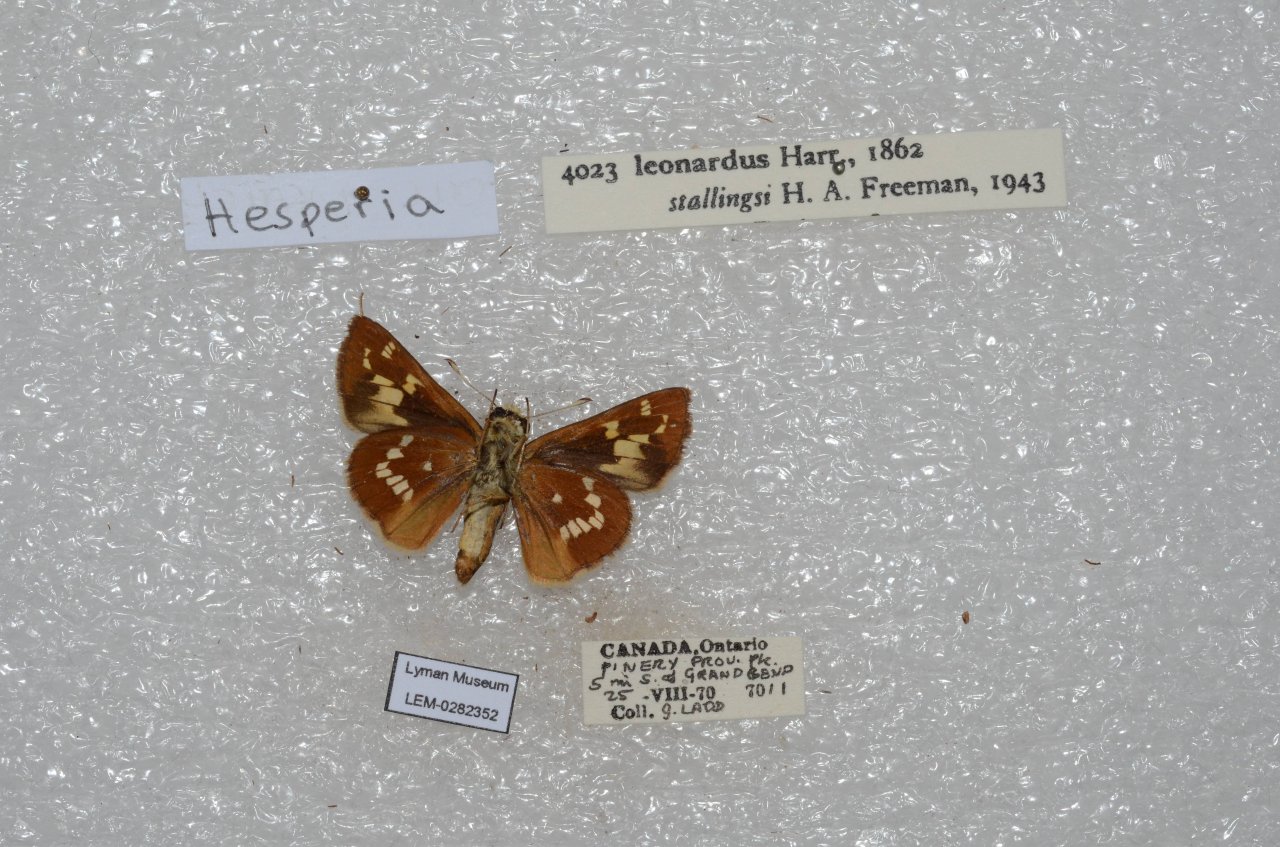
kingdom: Animalia
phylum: Arthropoda
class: Insecta
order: Lepidoptera
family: Hesperiidae
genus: Hesperia
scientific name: Hesperia leonardus
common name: Leonard's Skipper
